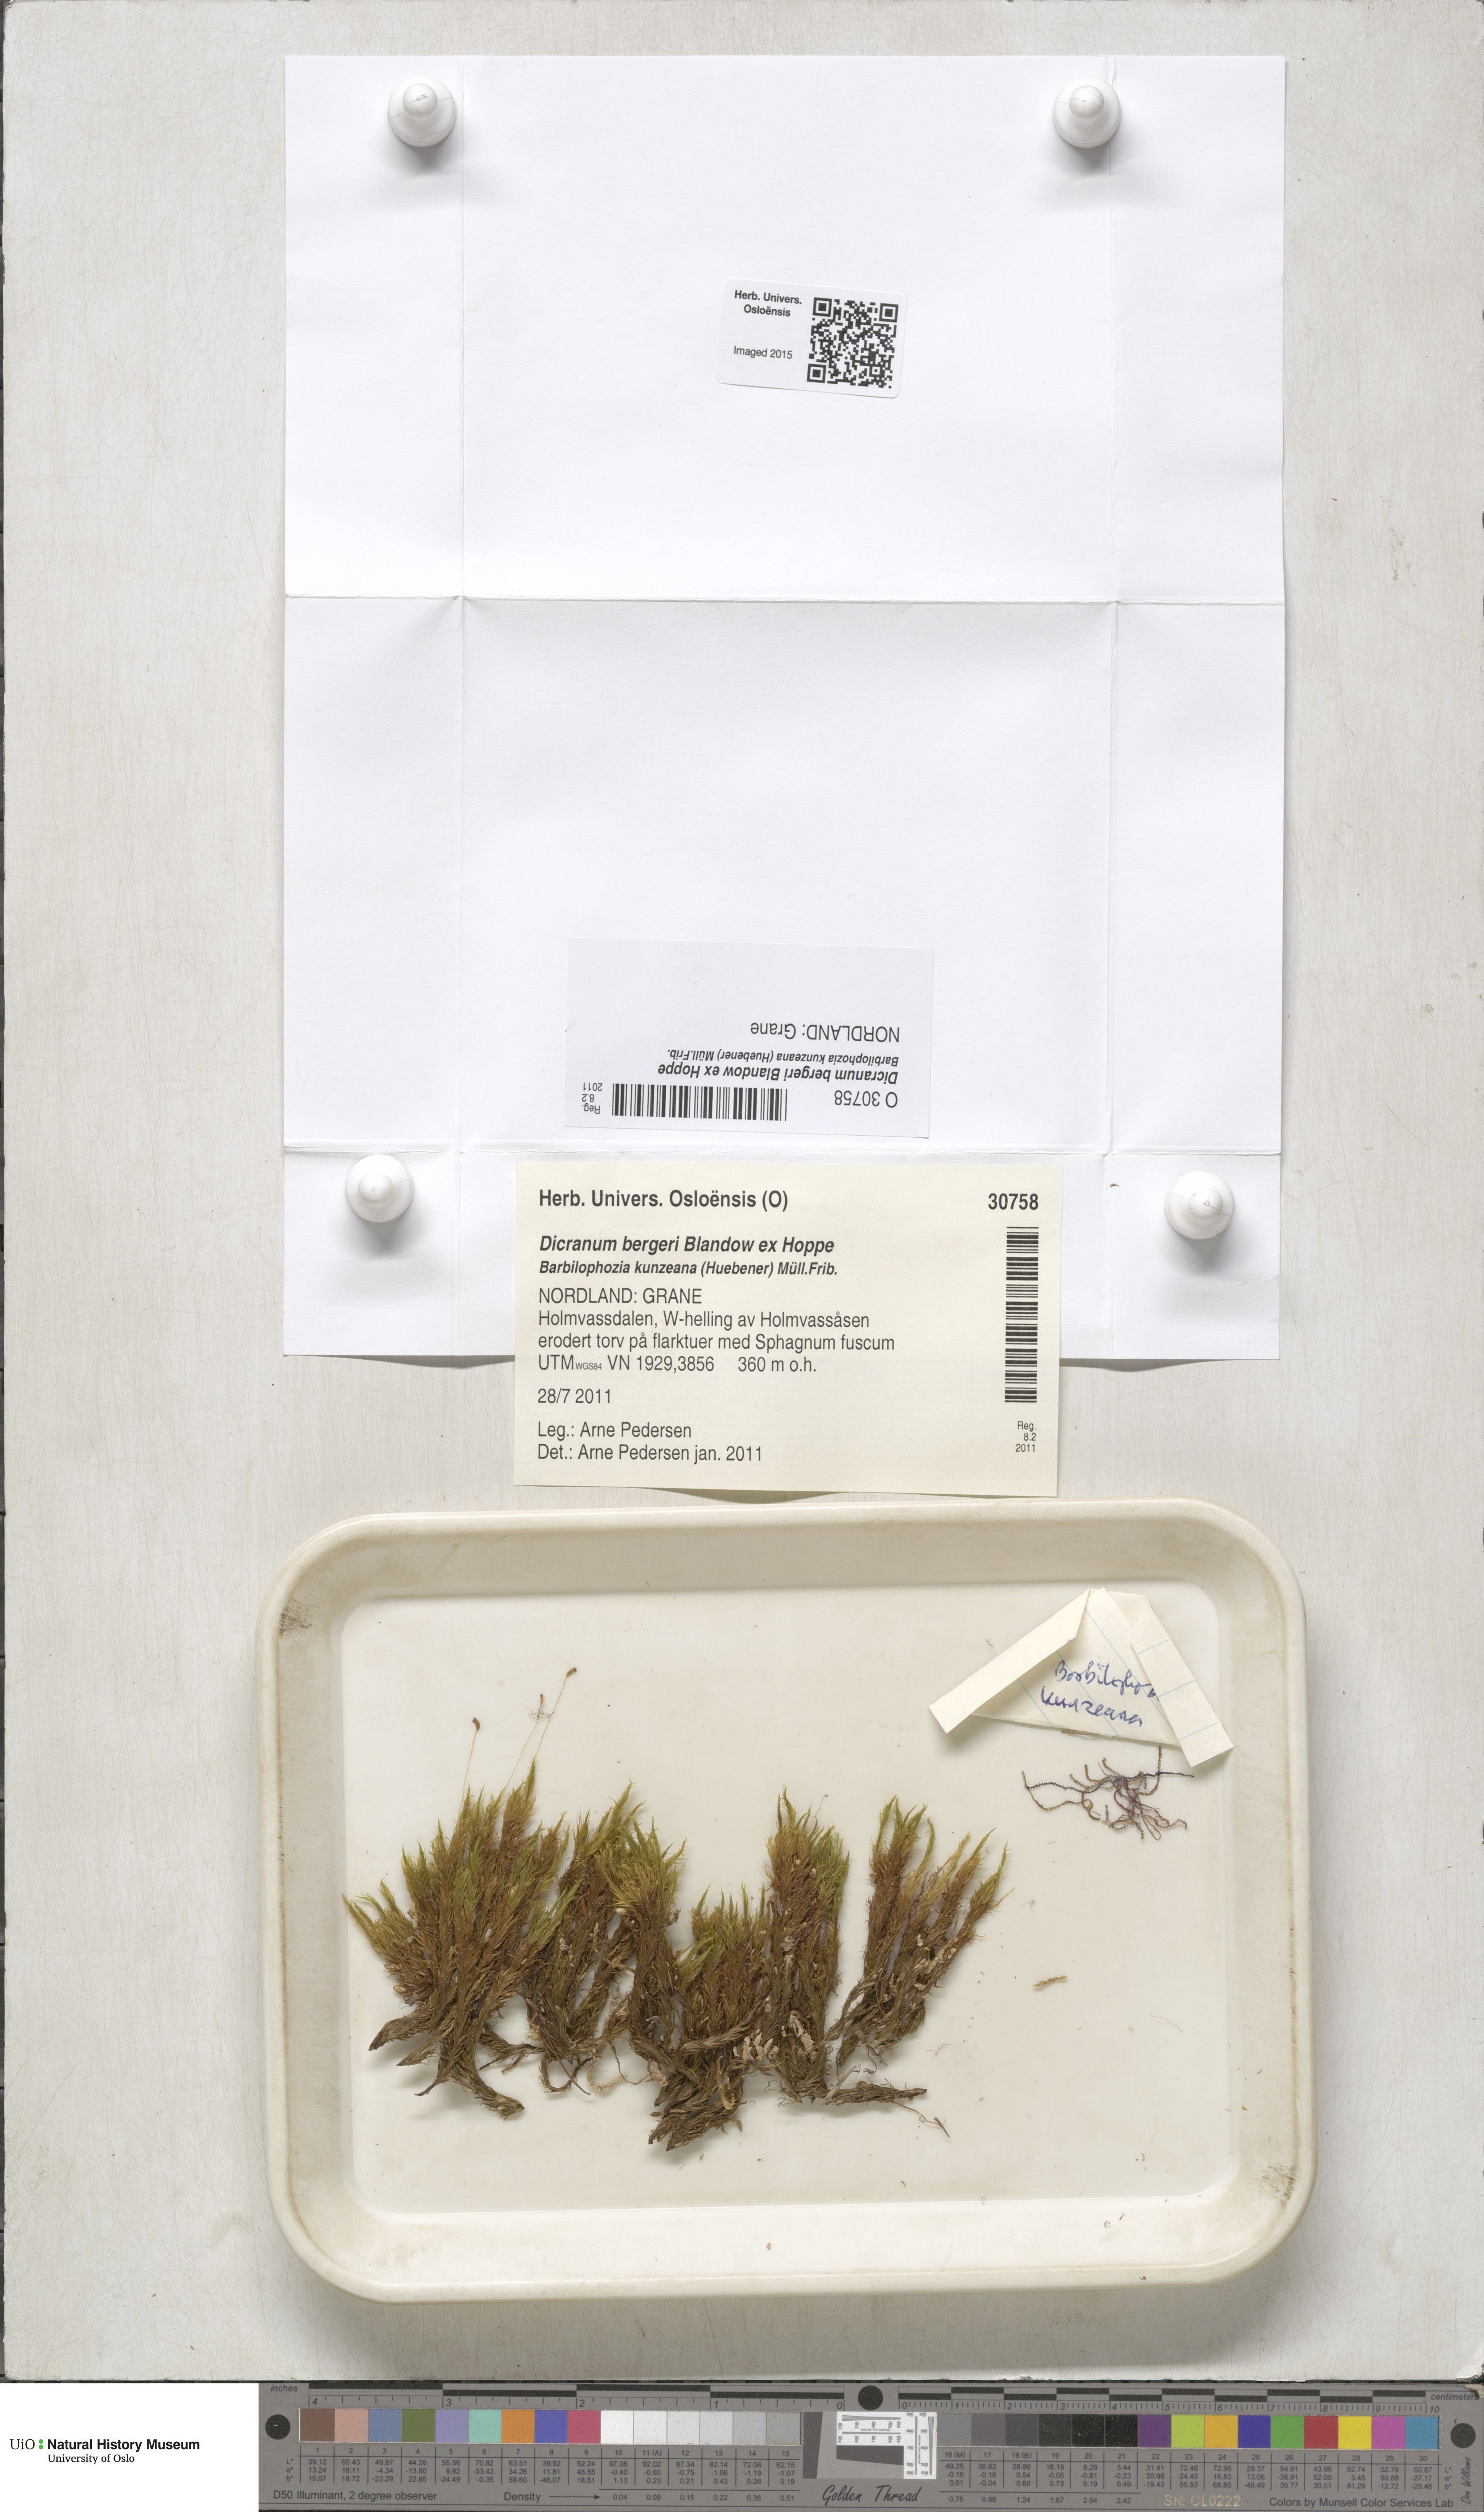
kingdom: Plantae
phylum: Marchantiophyta
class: Jungermanniopsida
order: Jungermanniales
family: Cephaloziaceae
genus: Odontoschisma
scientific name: Odontoschisma sphagni
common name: Bog-moss flapwort
